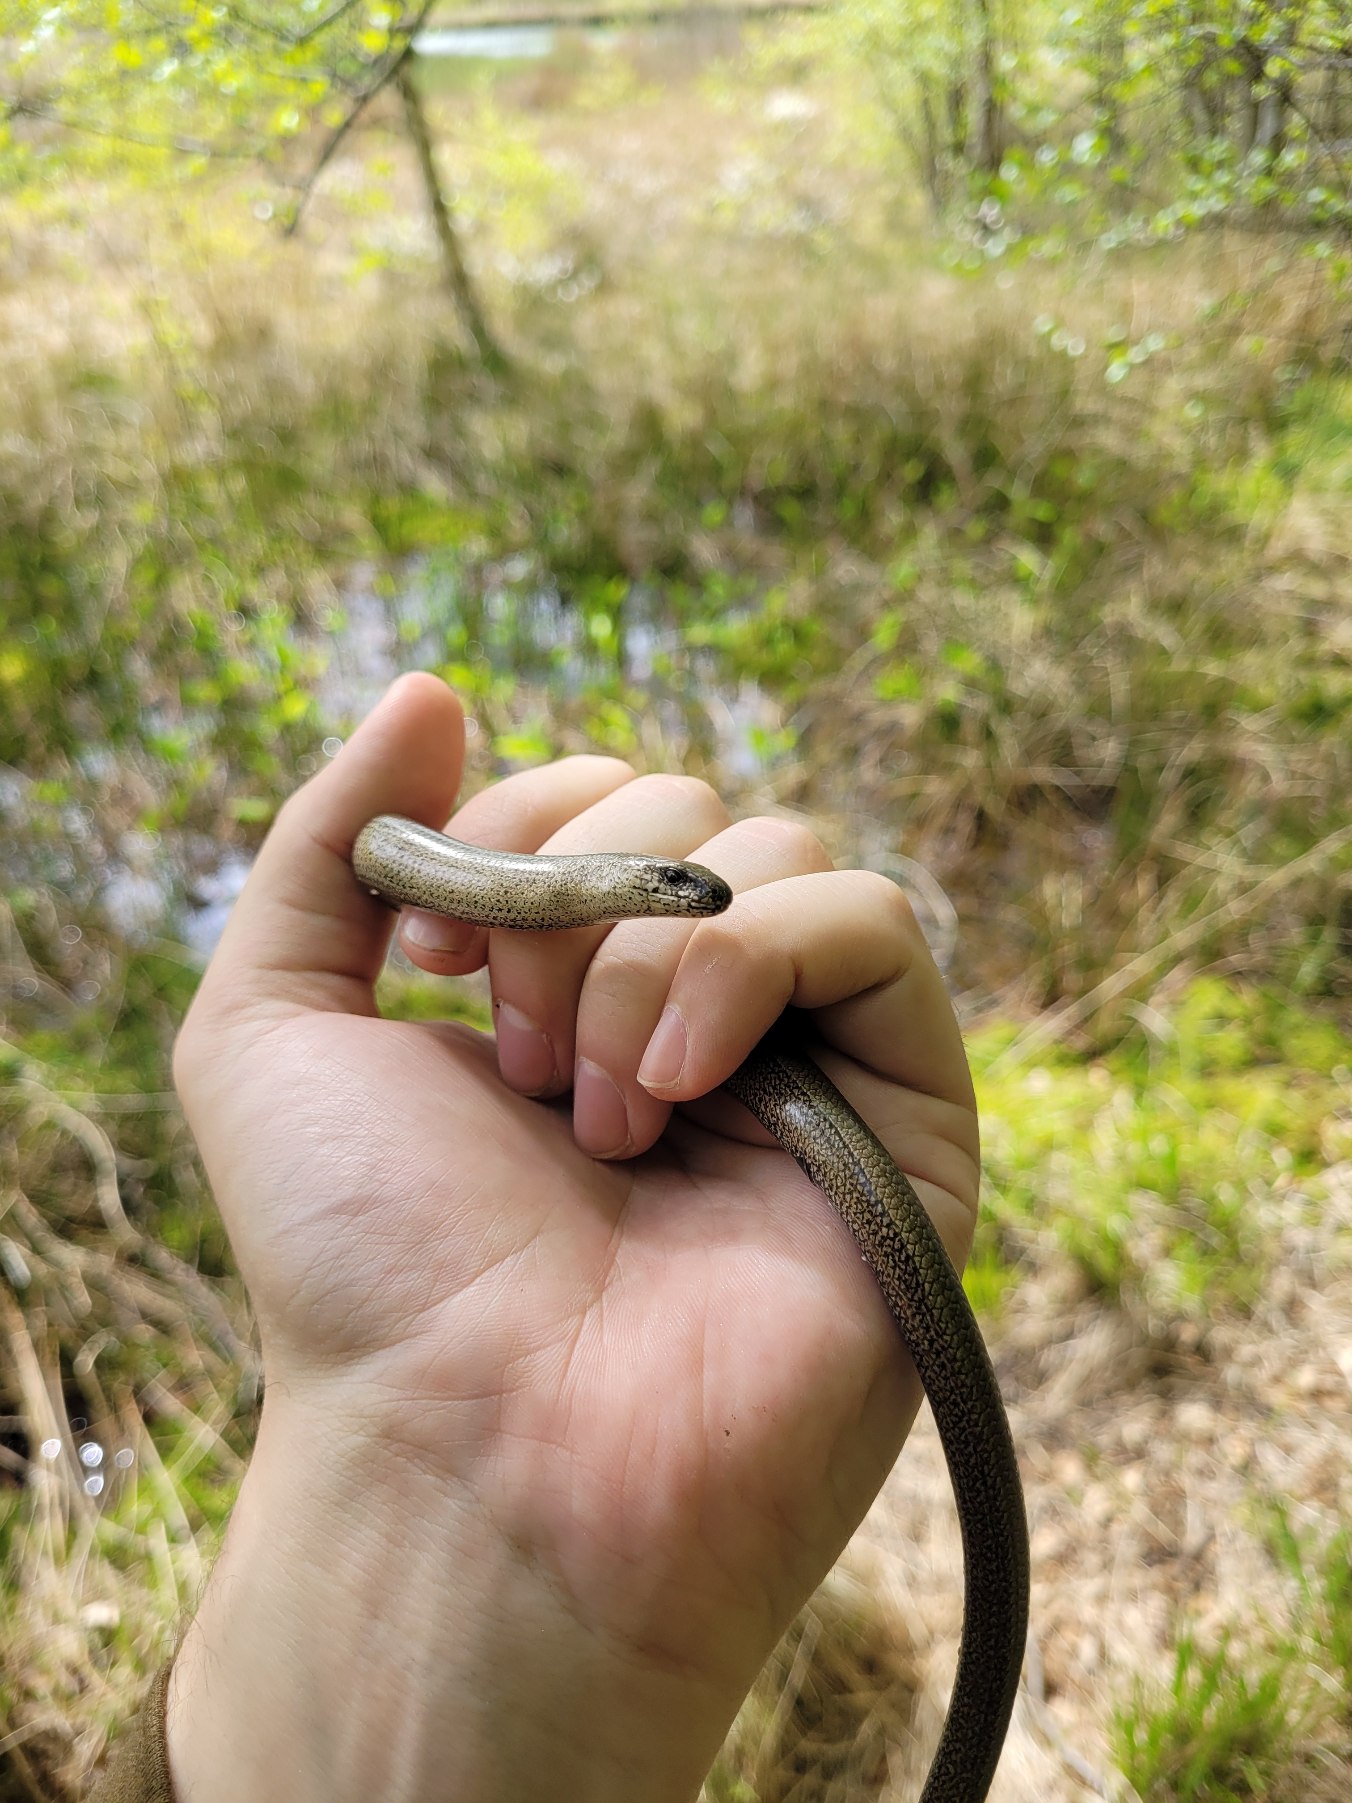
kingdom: Animalia
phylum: Chordata
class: Squamata
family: Anguidae
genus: Anguis
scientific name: Anguis fragilis
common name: Stålorm
